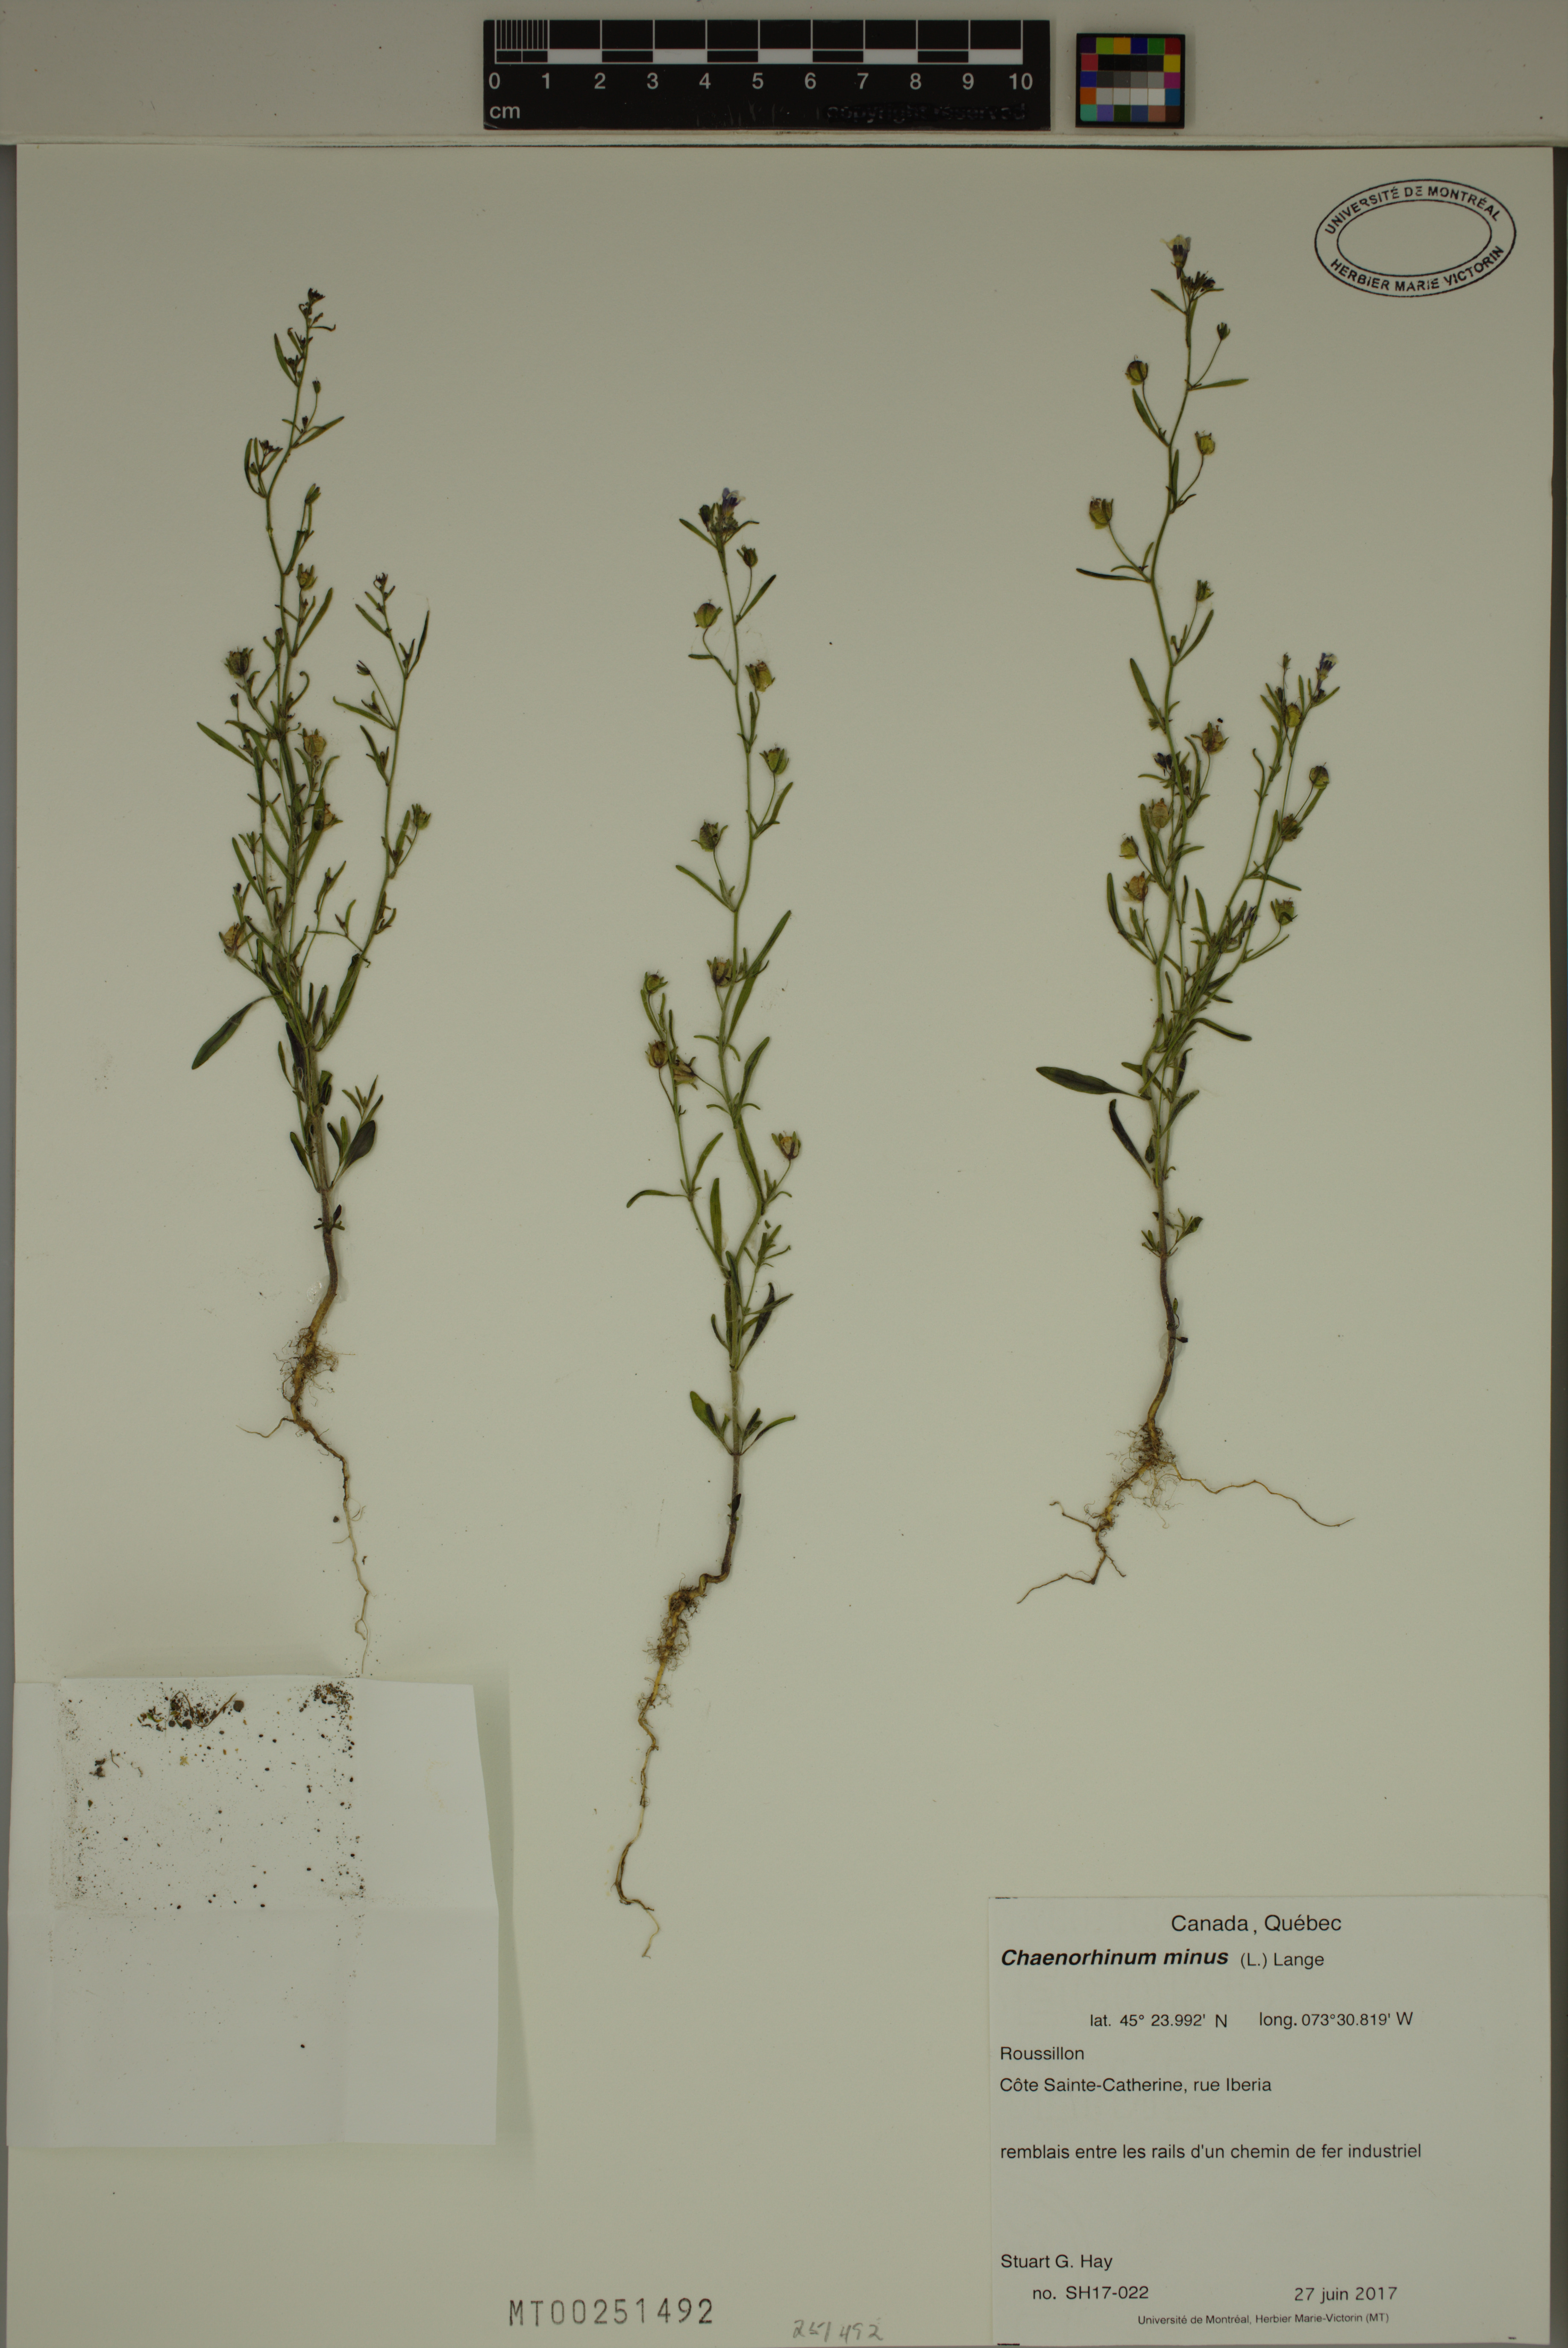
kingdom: Plantae
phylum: Tracheophyta
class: Magnoliopsida
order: Lamiales
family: Plantaginaceae
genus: Chaenorhinum
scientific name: Chaenorhinum minus
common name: Dwarf snapdragon
